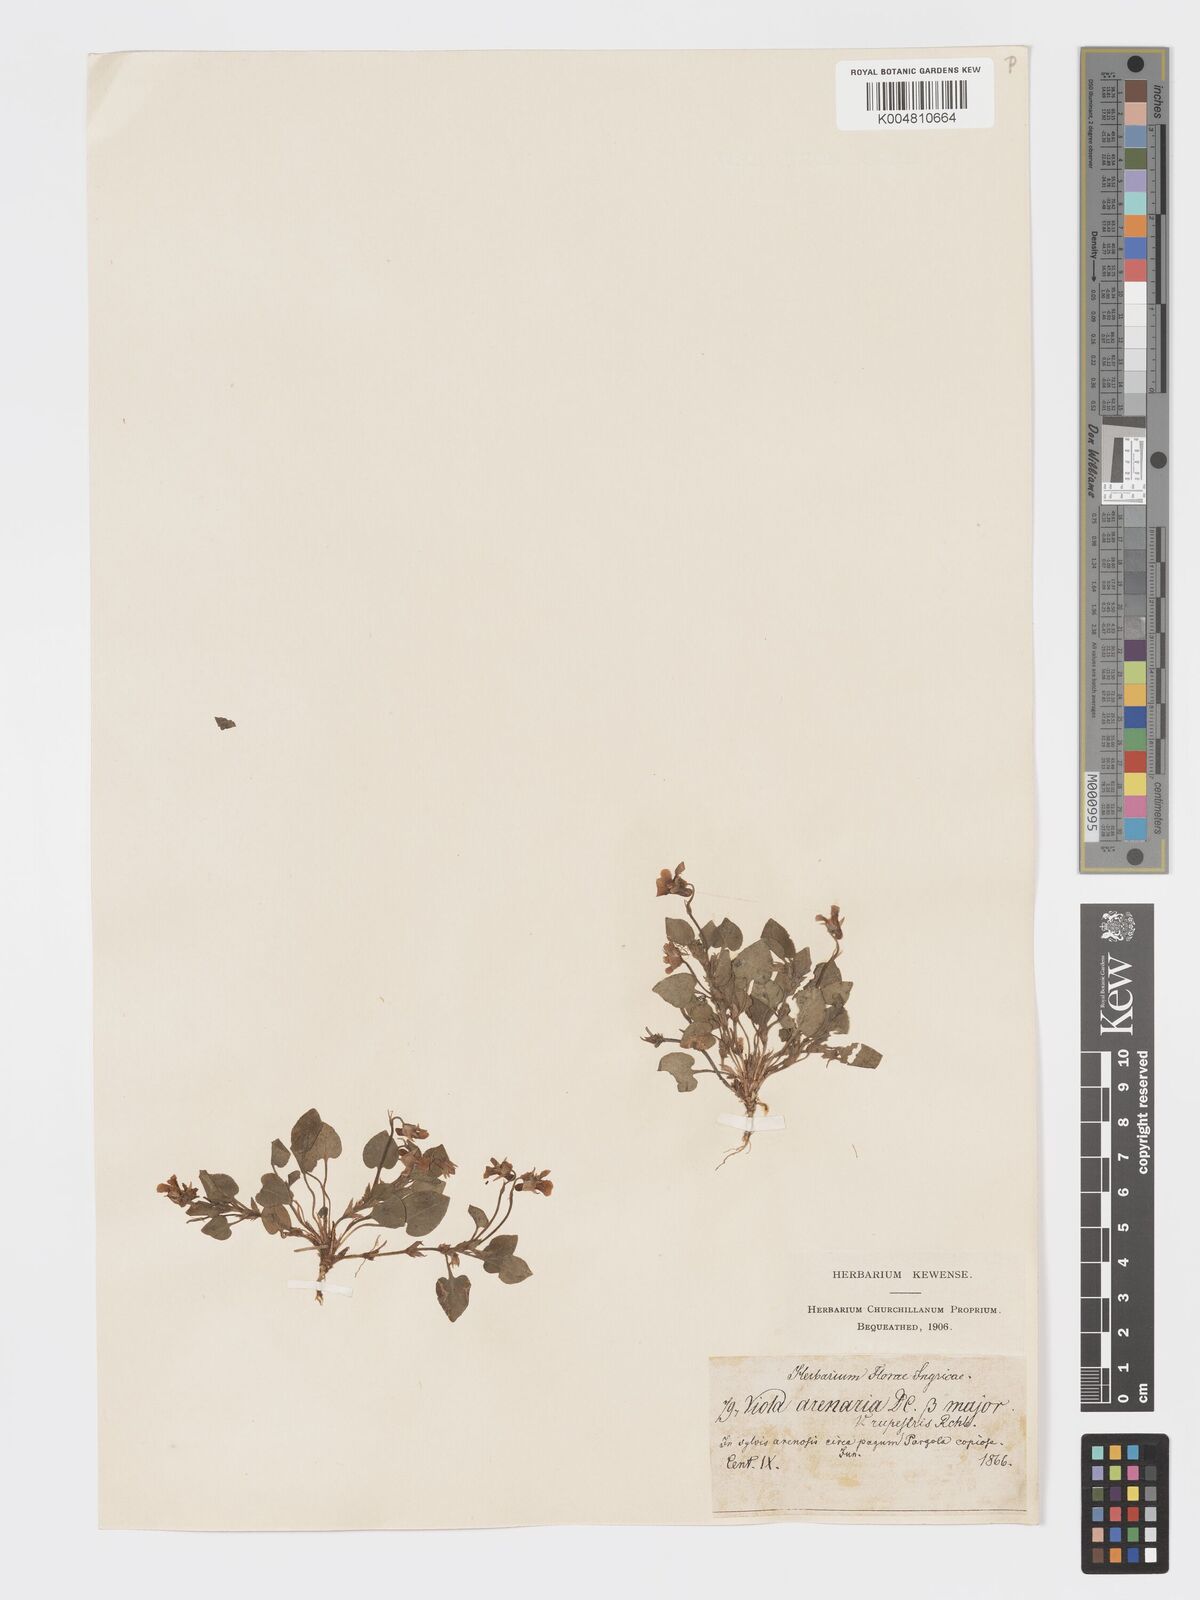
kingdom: Plantae
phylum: Tracheophyta
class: Magnoliopsida
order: Malpighiales
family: Violaceae
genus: Viola
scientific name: Viola rupestris
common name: Teesdale violet
